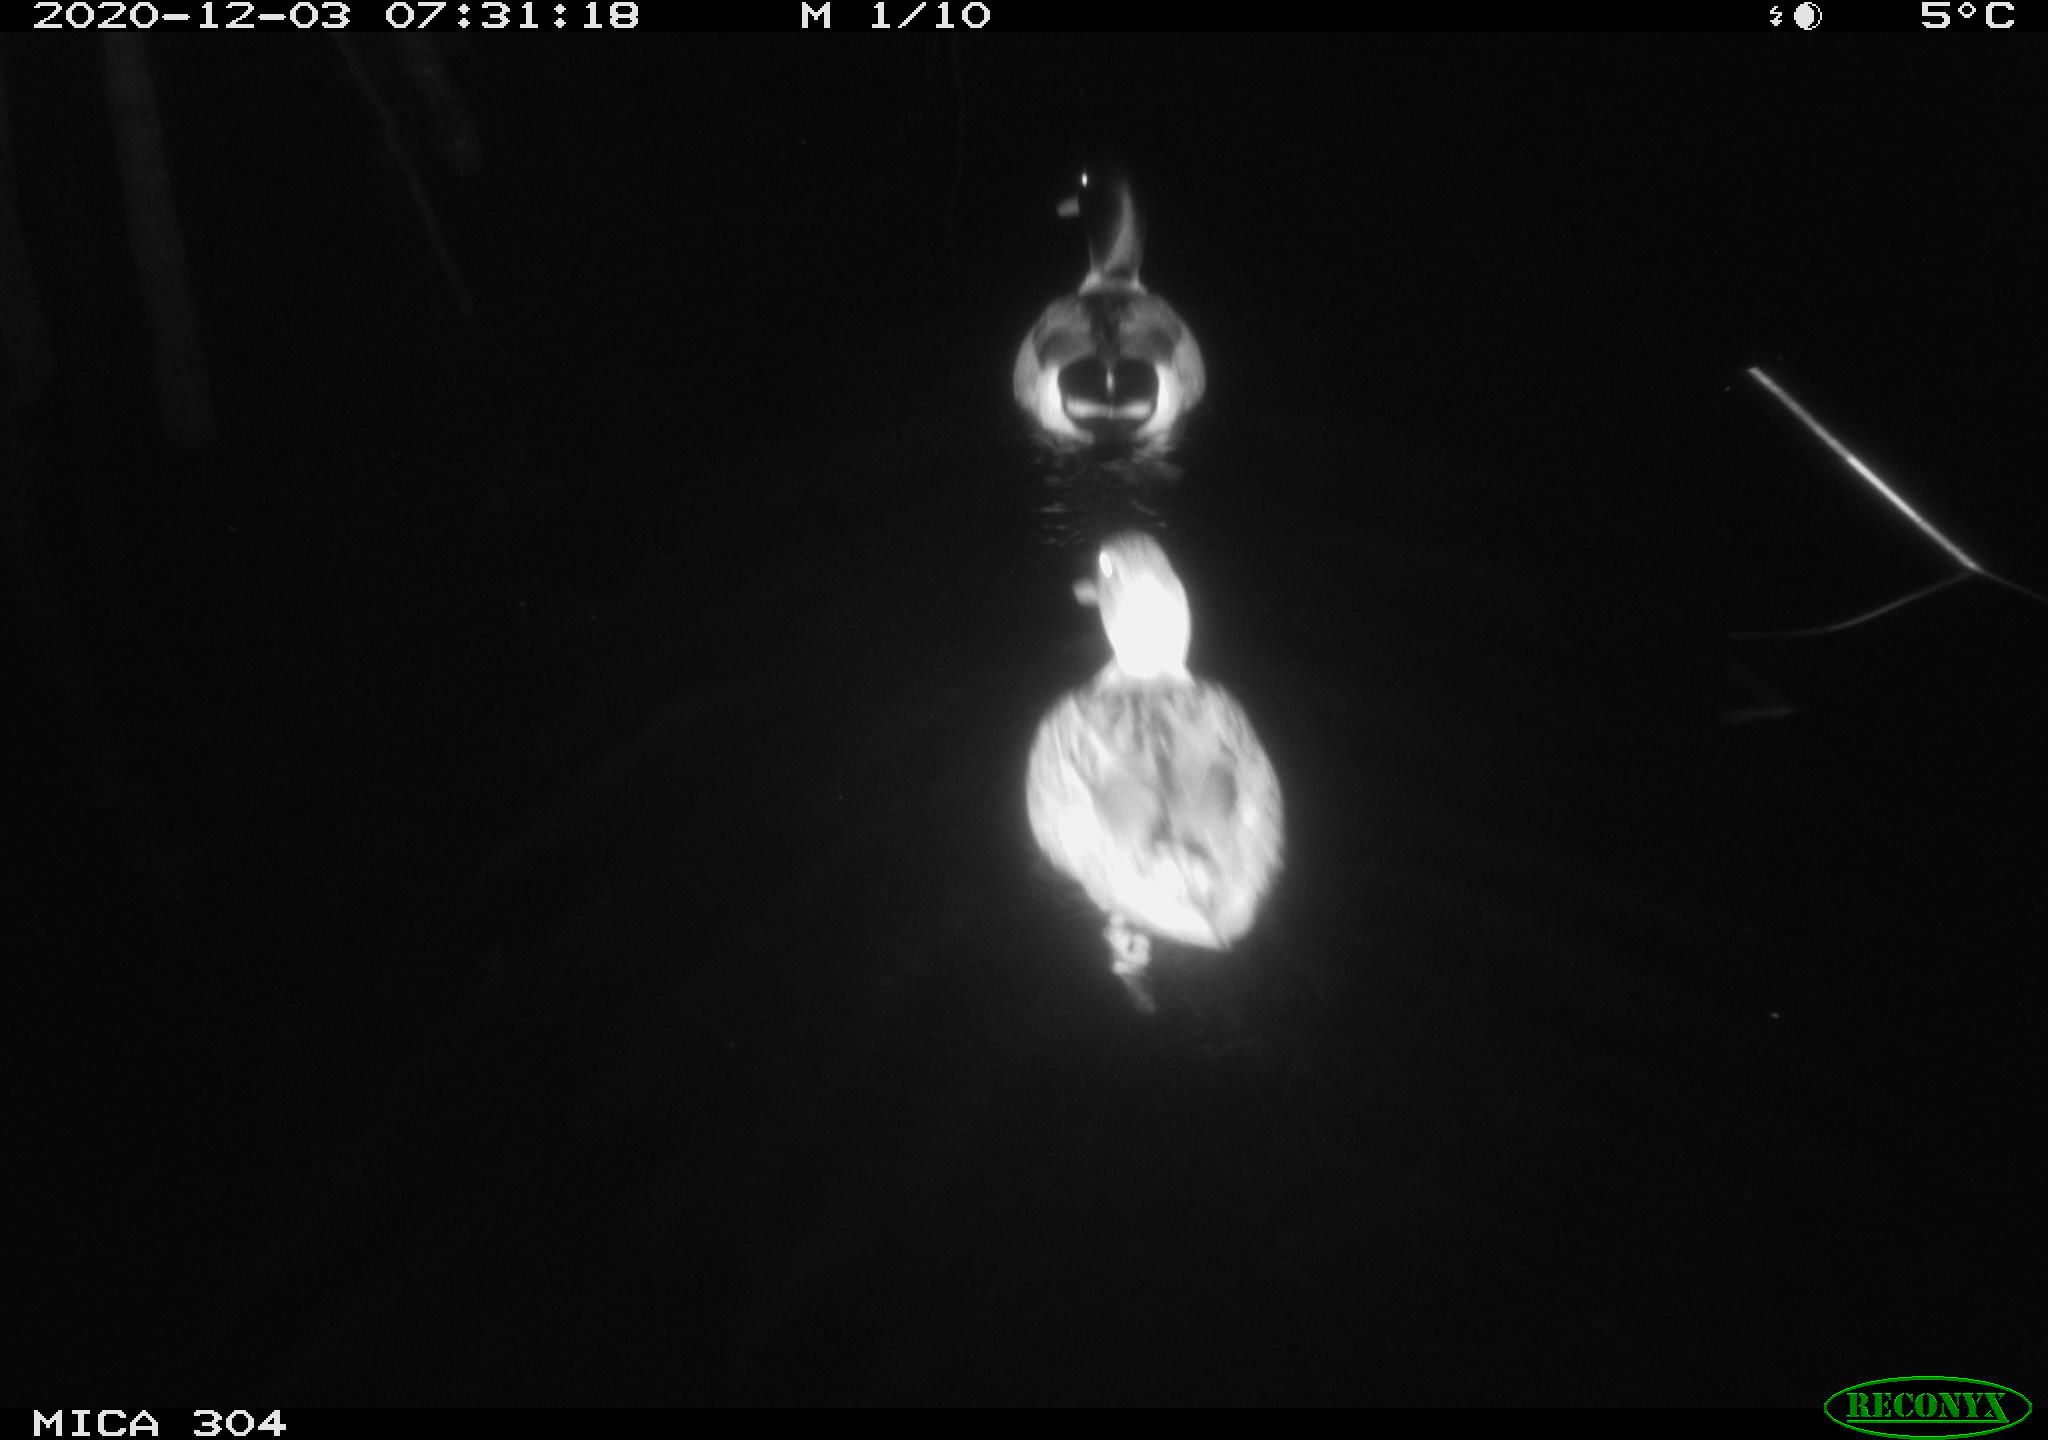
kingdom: Animalia
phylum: Chordata
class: Aves
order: Anseriformes
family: Anatidae
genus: Anas
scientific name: Anas platyrhynchos
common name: Mallard
